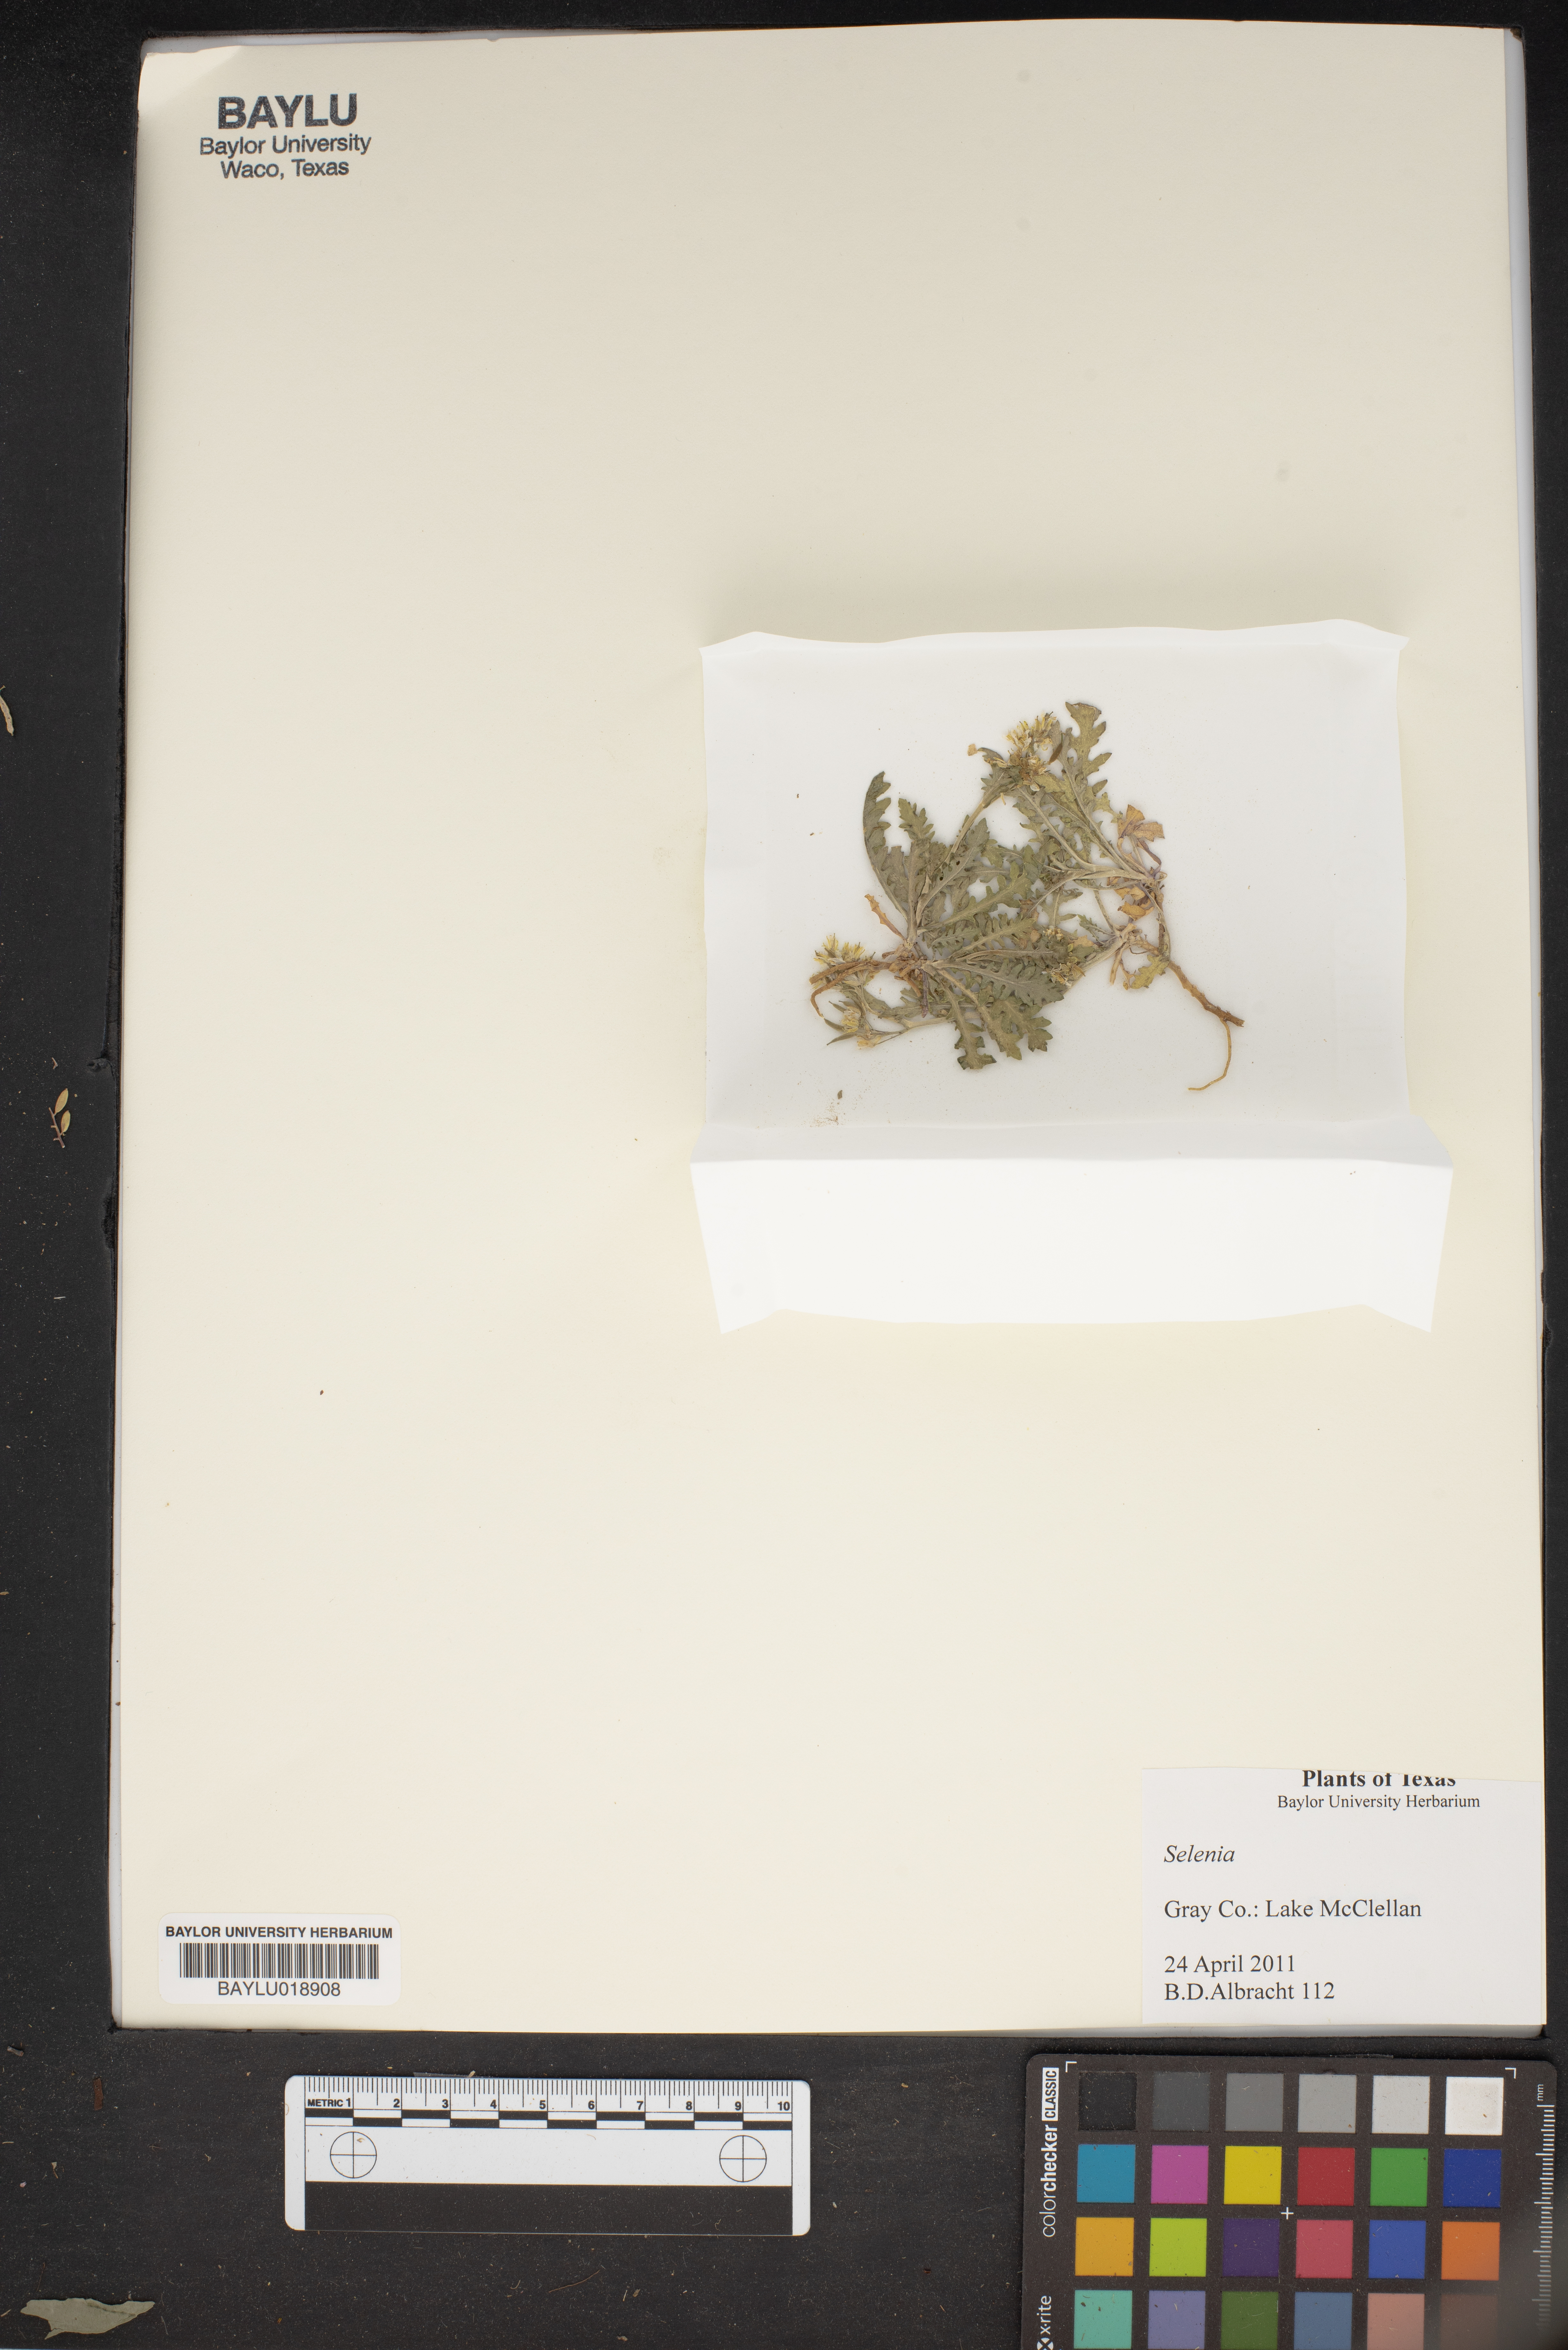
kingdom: Plantae
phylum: Tracheophyta
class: Magnoliopsida
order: Brassicales
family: Brassicaceae
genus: Selenia
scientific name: Selenia
